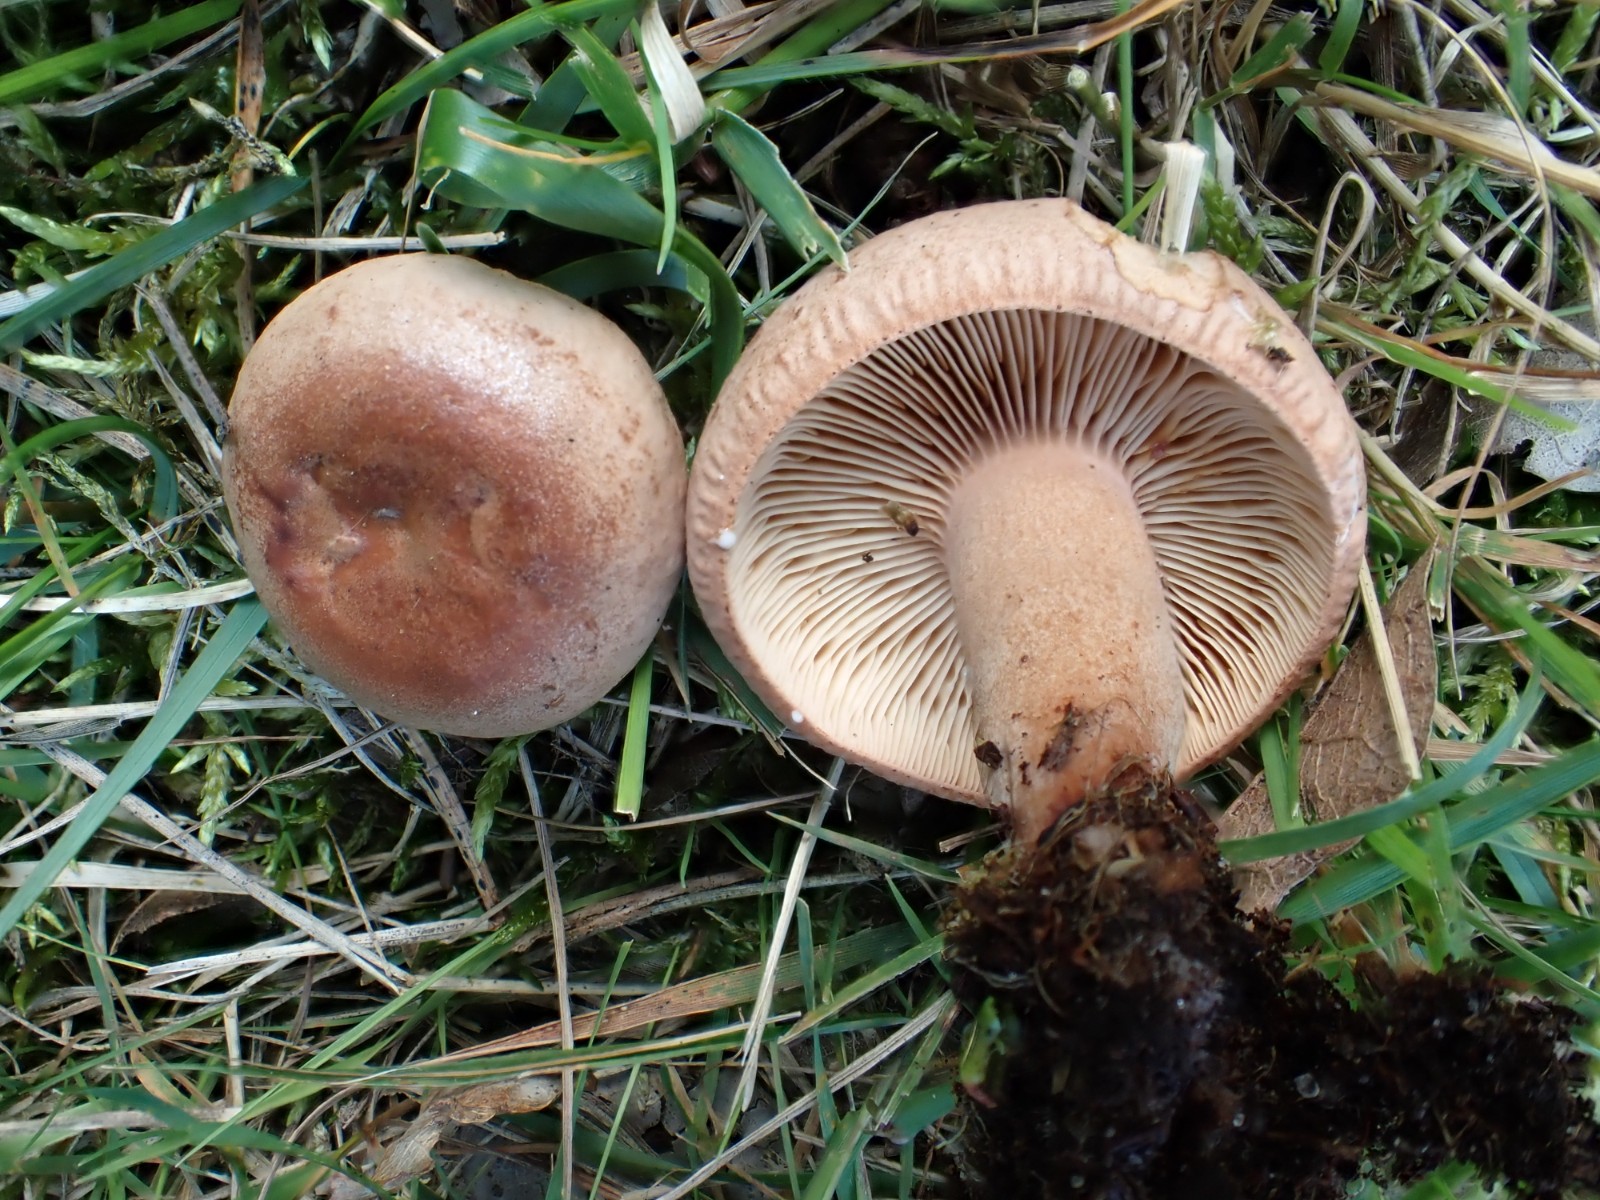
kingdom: Fungi
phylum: Basidiomycota
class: Agaricomycetes
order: Russulales
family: Russulaceae
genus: Lactarius
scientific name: Lactarius quietus
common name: ege-mælkehat
